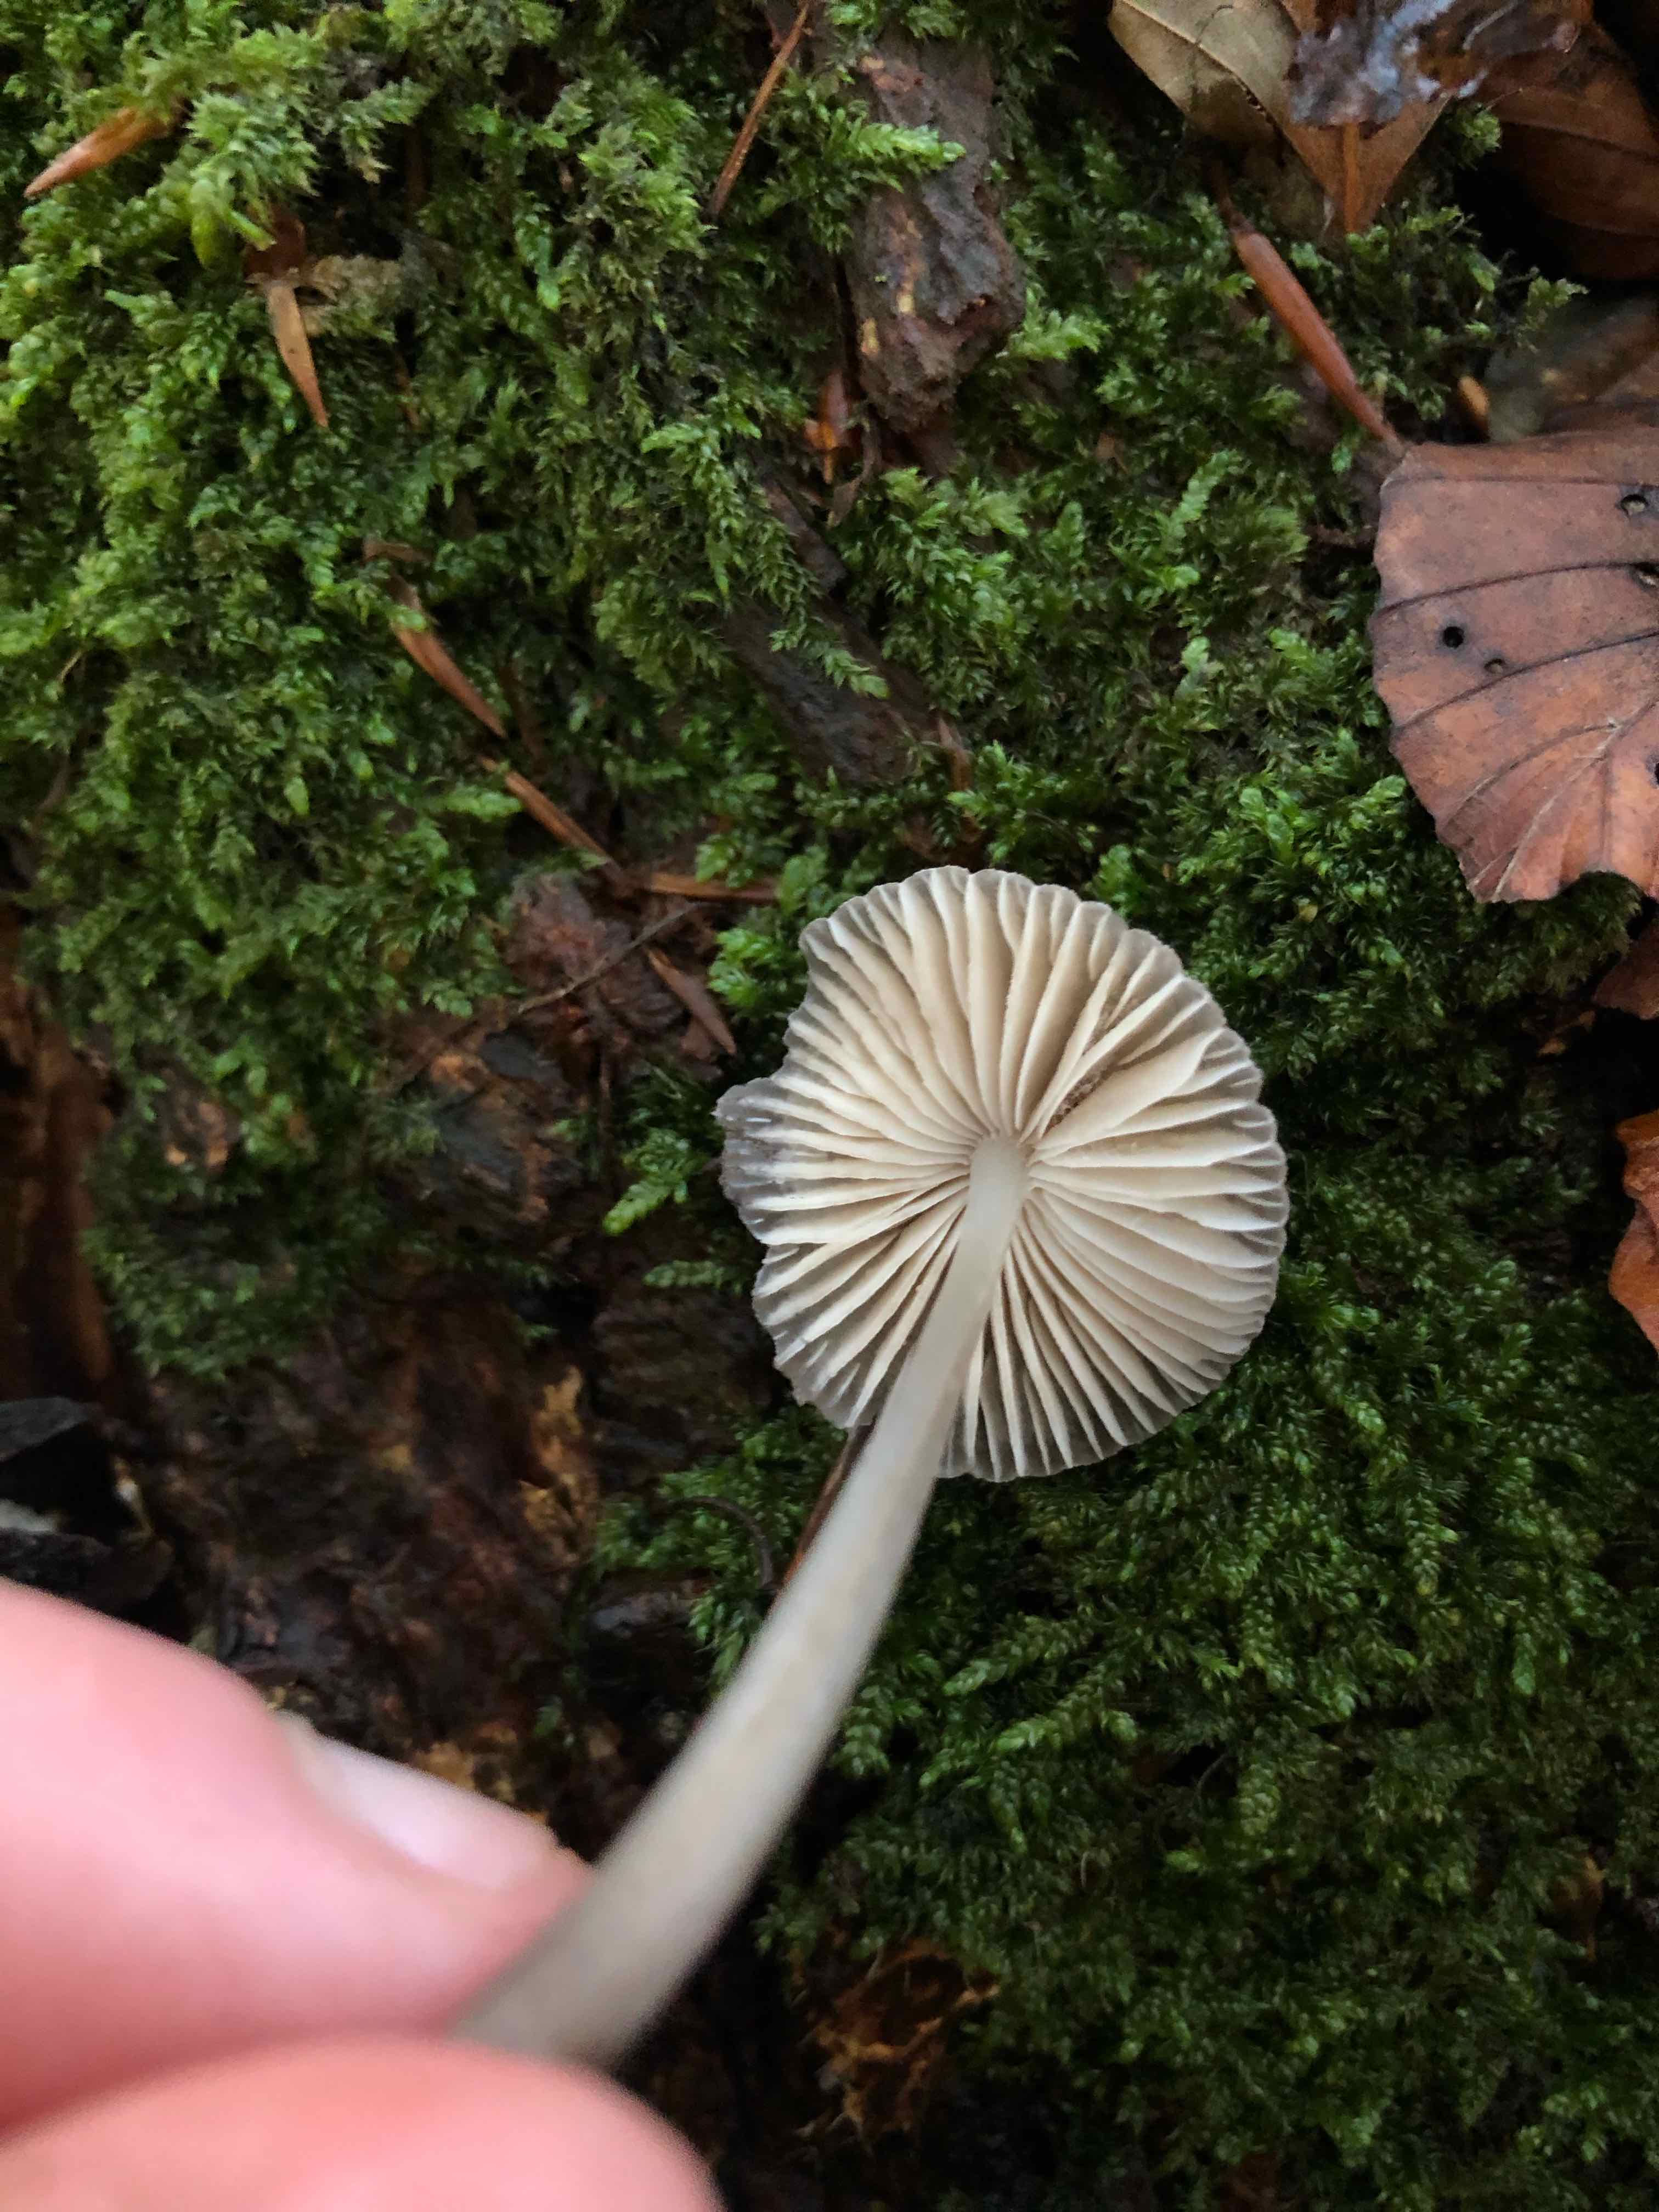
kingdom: Fungi
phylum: Basidiomycota
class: Agaricomycetes
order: Agaricales
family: Mycenaceae
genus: Mycena
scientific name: Mycena
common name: huesvamp
